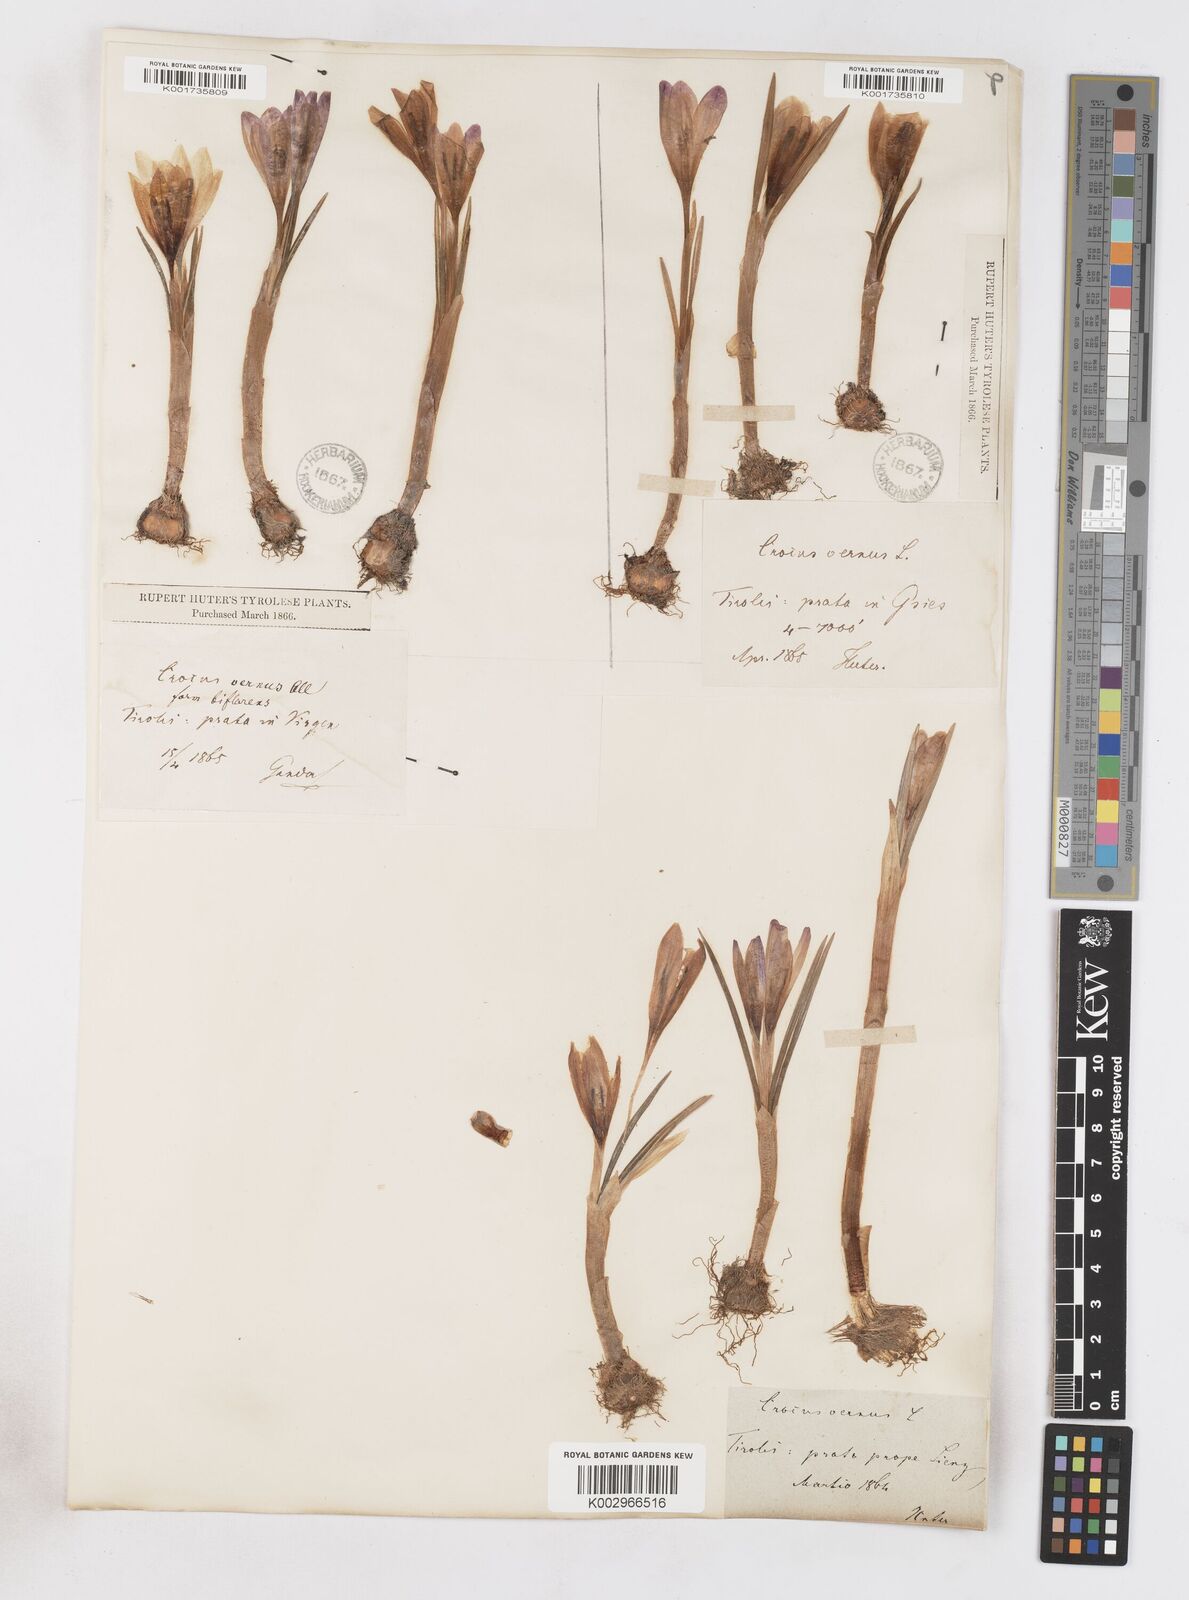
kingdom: Plantae
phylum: Tracheophyta
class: Liliopsida
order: Asparagales
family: Iridaceae
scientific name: Iridaceae
